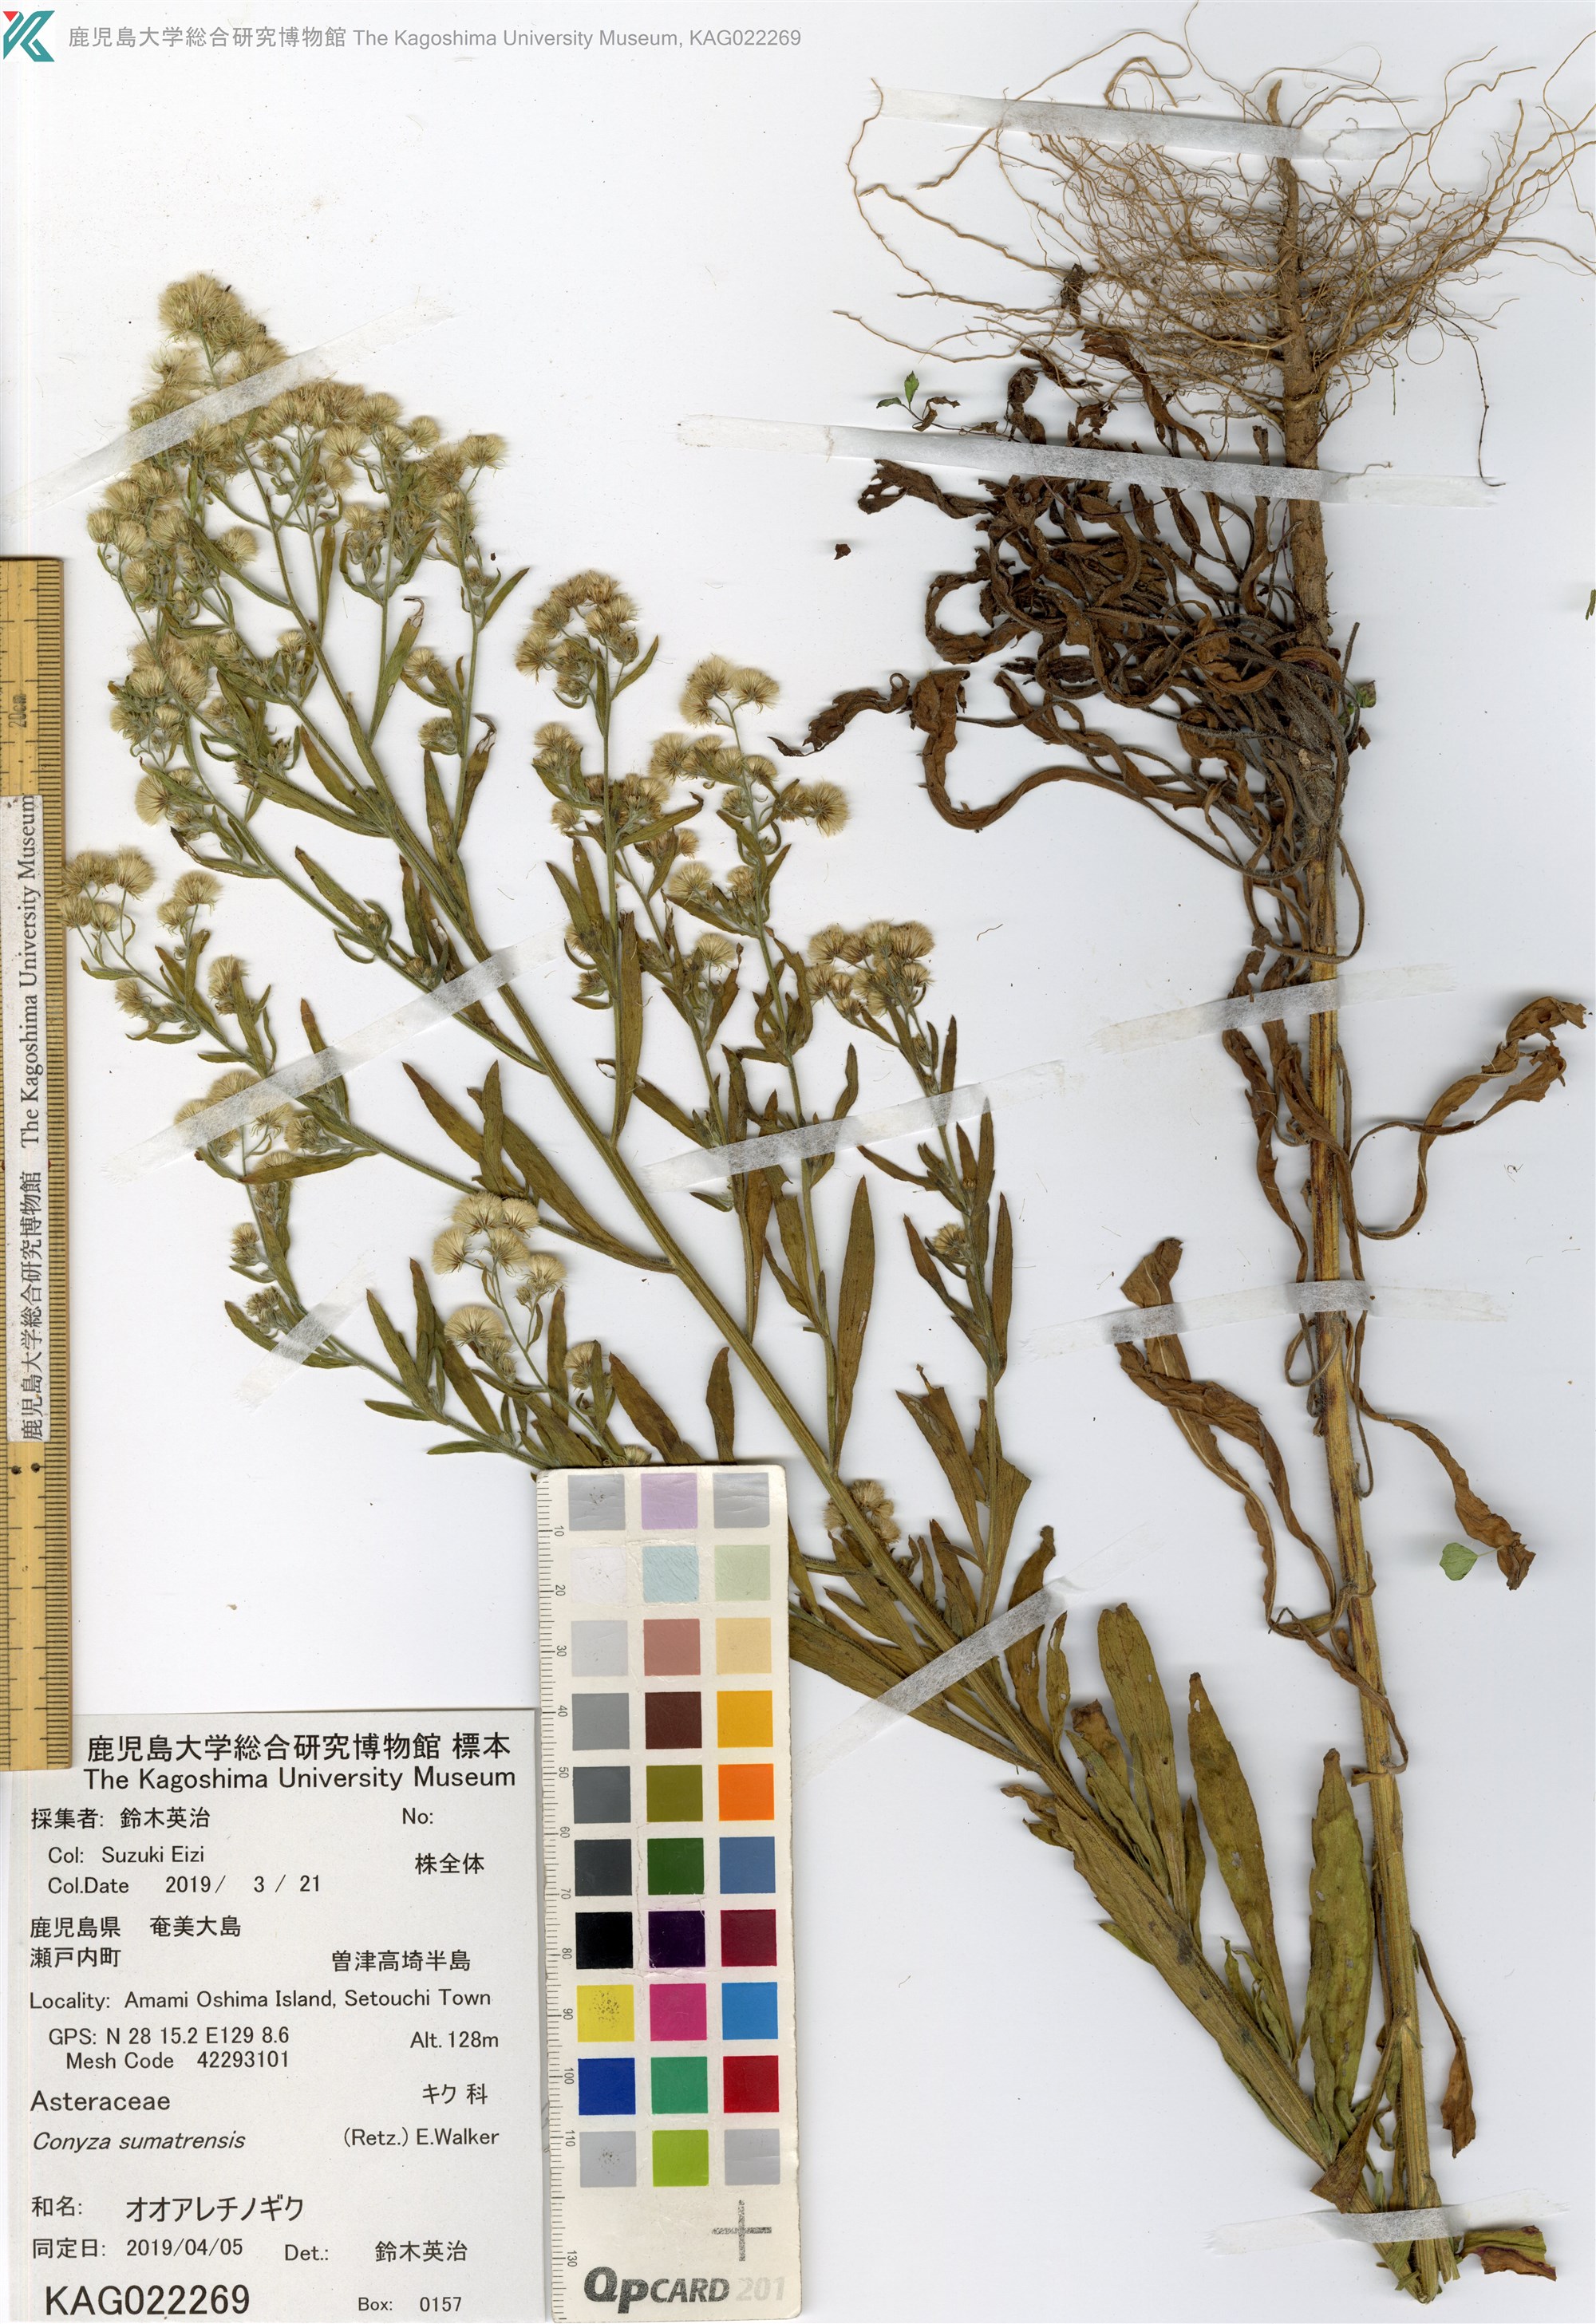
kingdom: Plantae
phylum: Tracheophyta
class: Magnoliopsida
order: Asterales
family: Asteraceae
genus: Erigeron
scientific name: Erigeron sumatrensis
